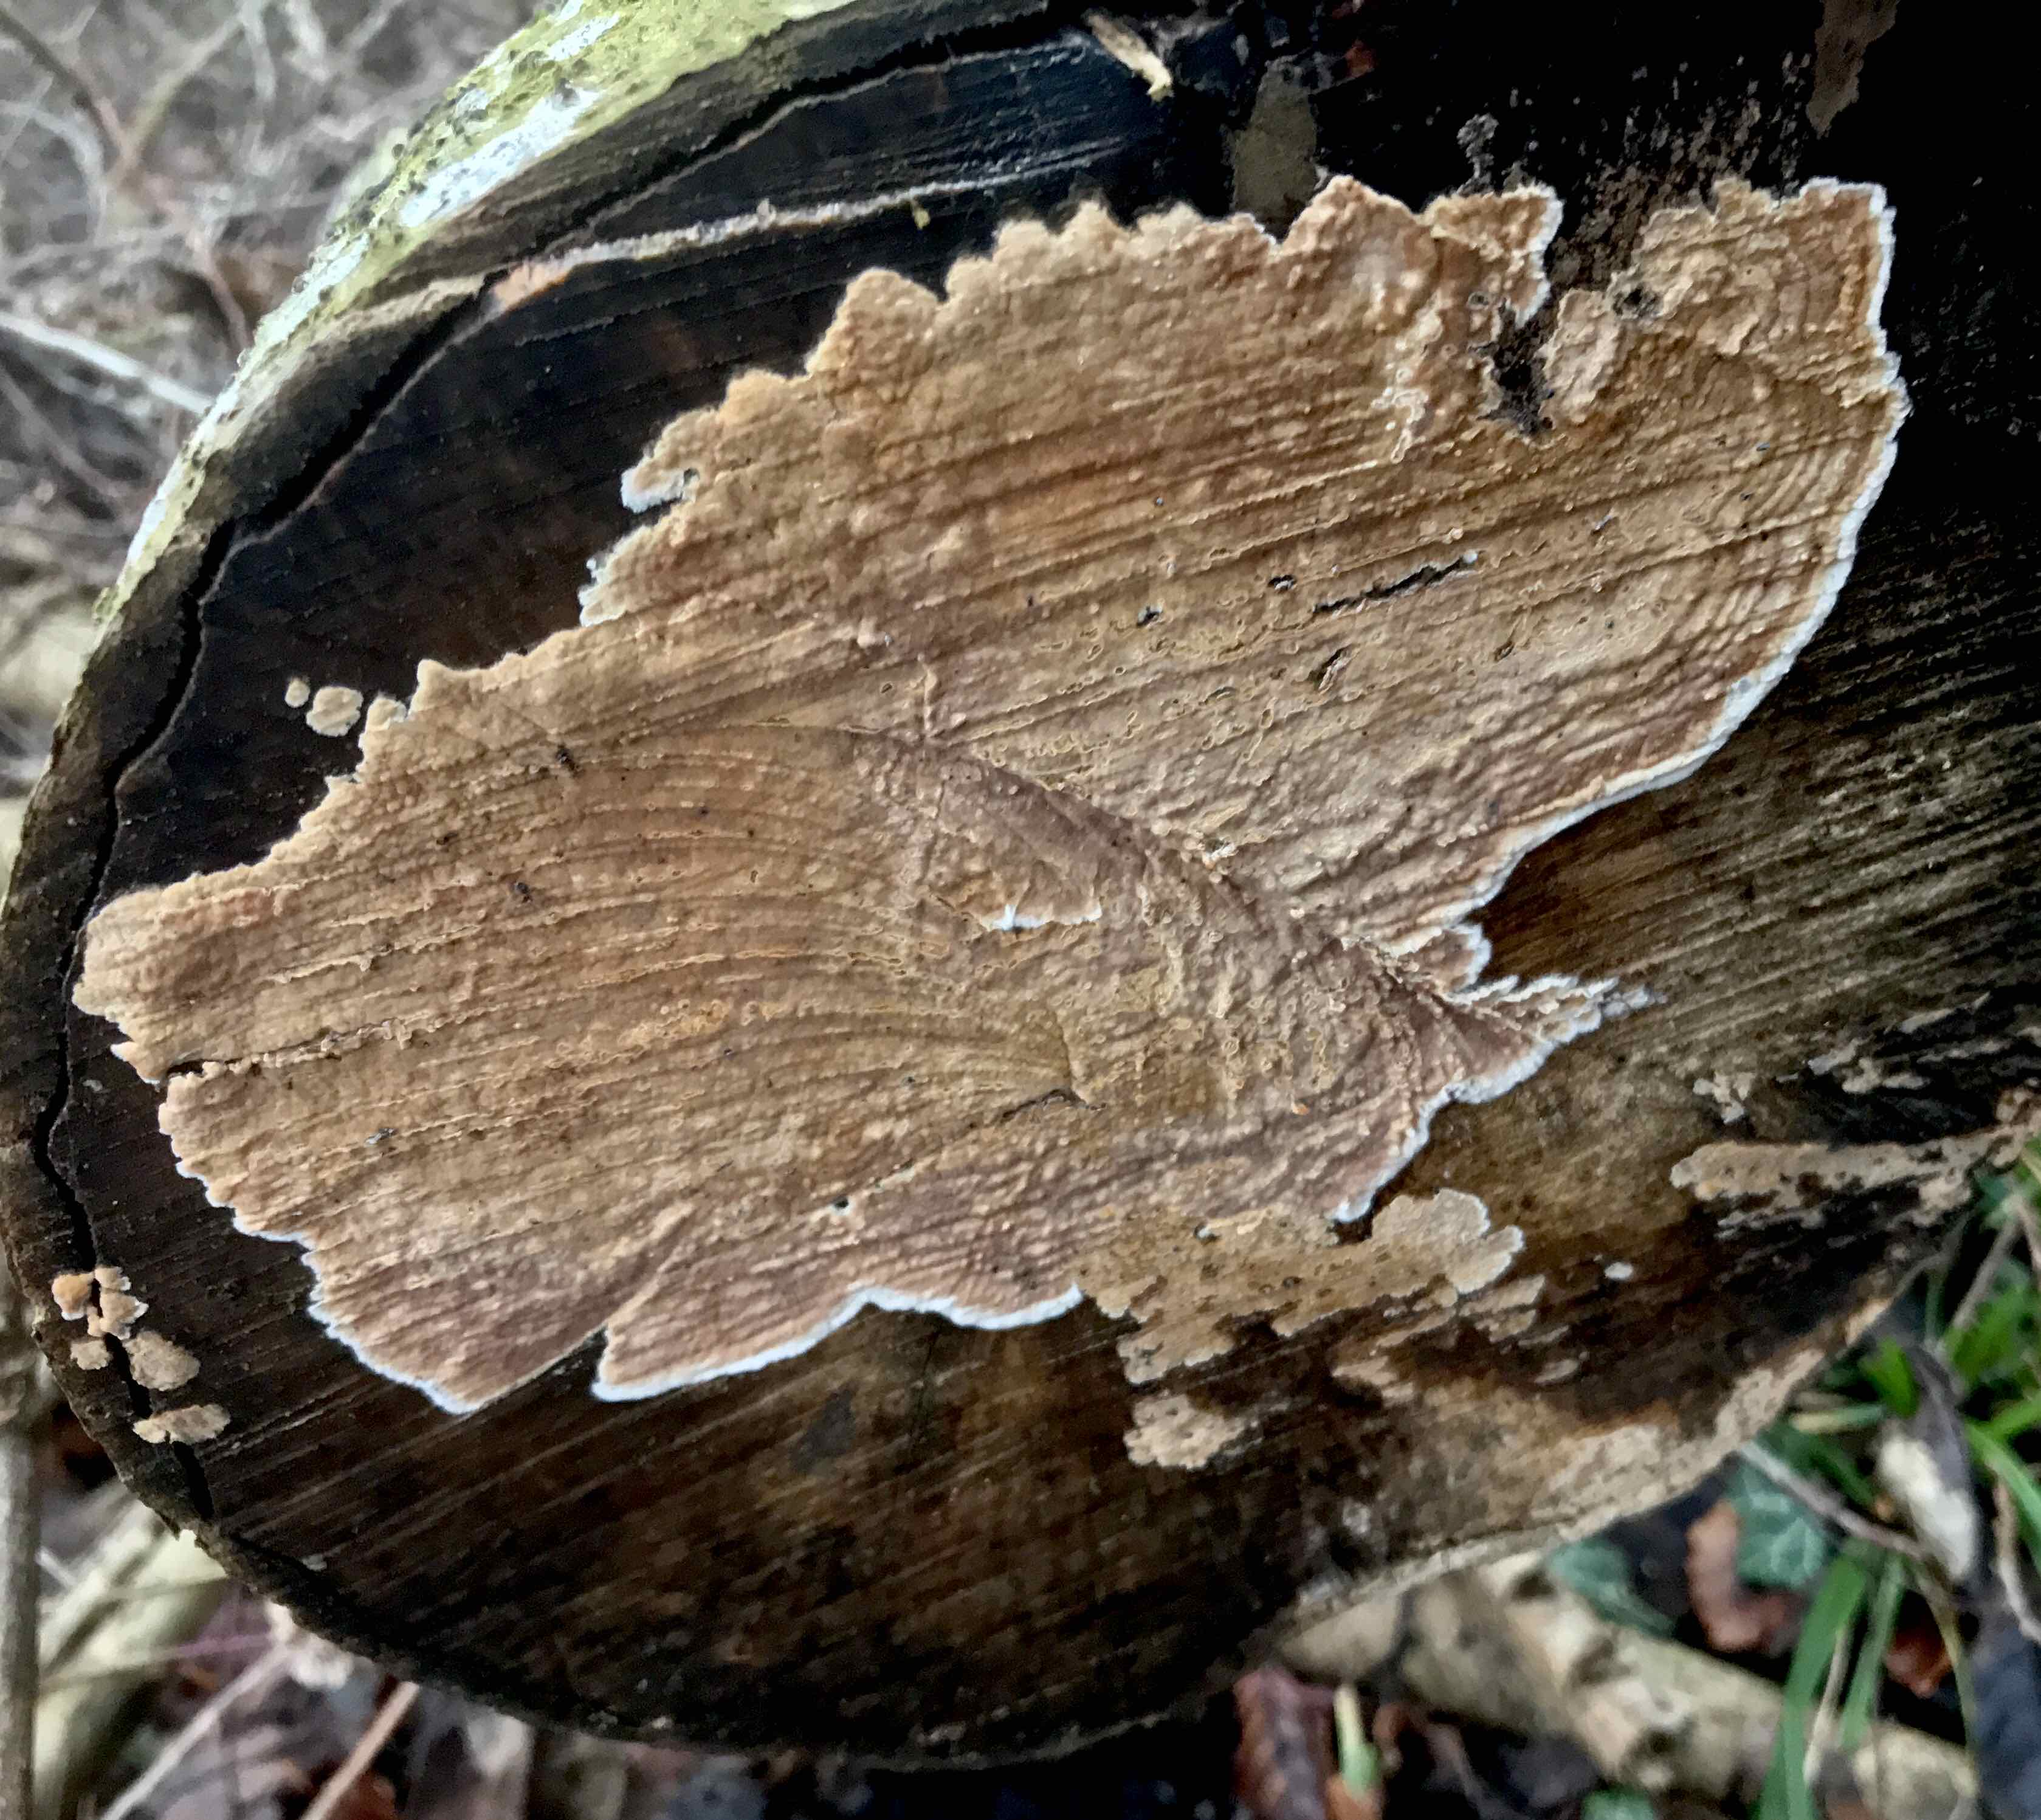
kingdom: Fungi
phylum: Basidiomycota
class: Agaricomycetes
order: Agaricales
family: Physalacriaceae
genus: Cylindrobasidium
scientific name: Cylindrobasidium evolvens
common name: sprækkehinde
